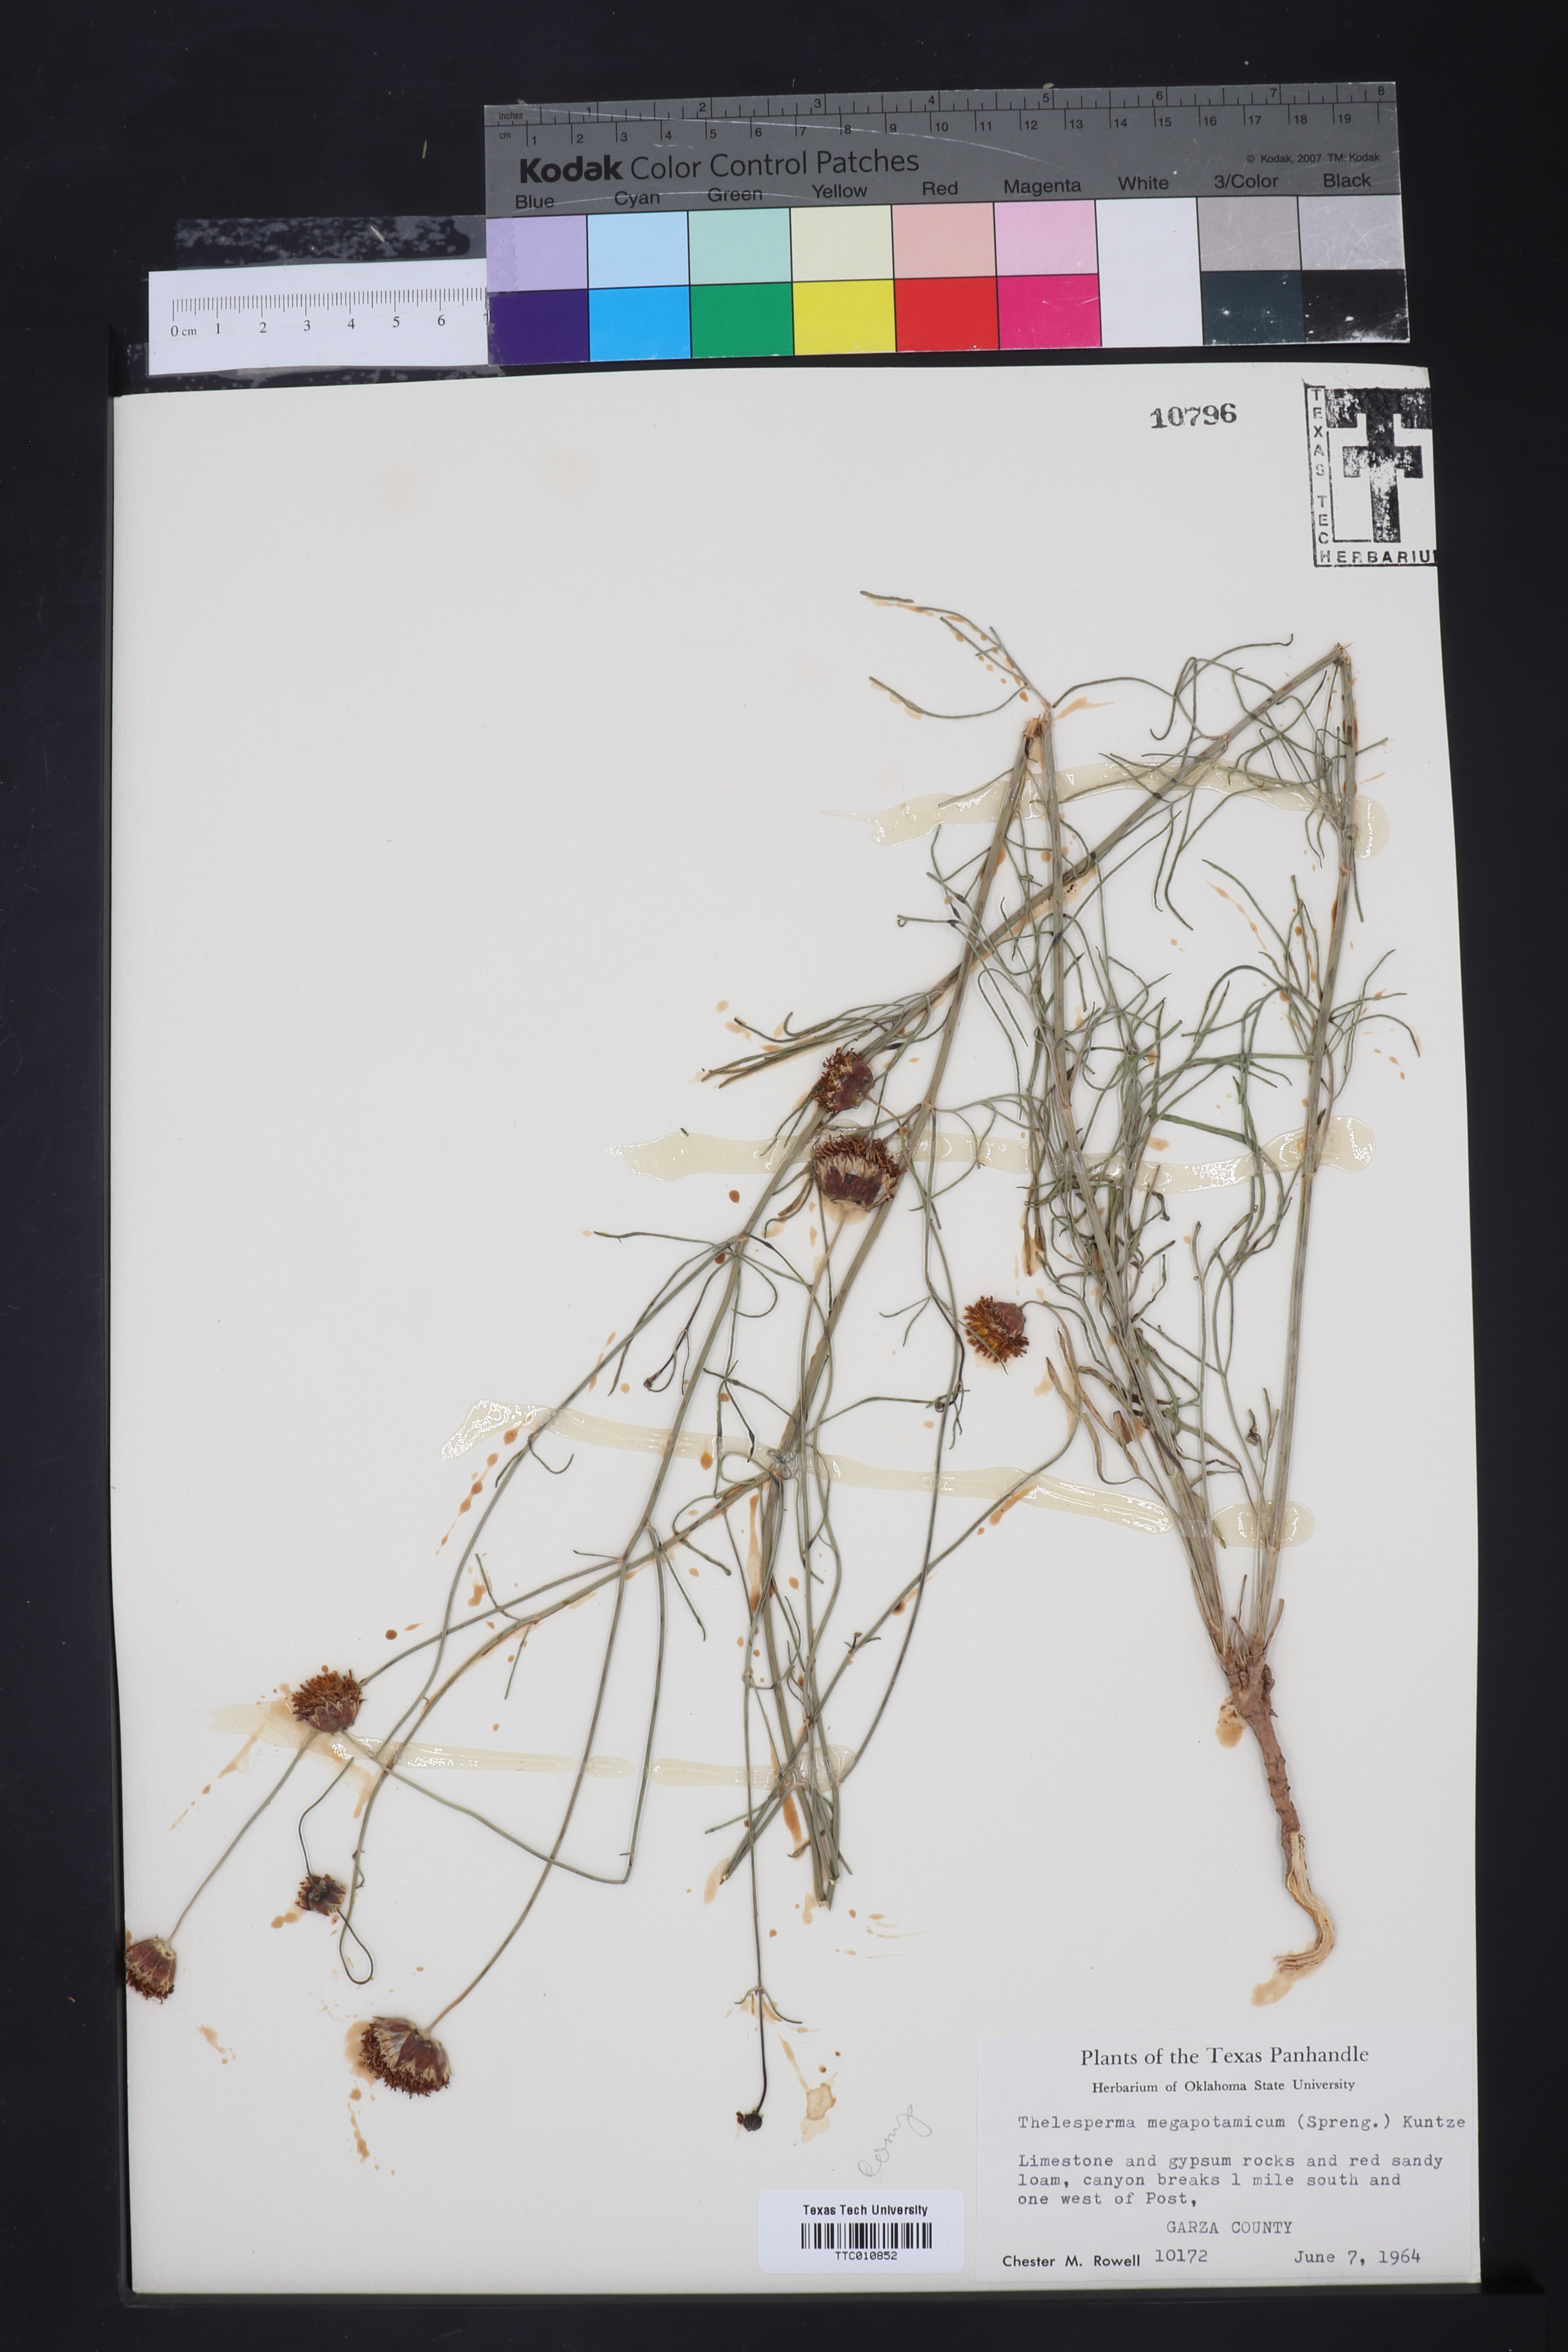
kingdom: Plantae
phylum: Tracheophyta
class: Magnoliopsida
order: Asterales
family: Asteraceae
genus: Thelesperma
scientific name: Thelesperma megapotamicum
